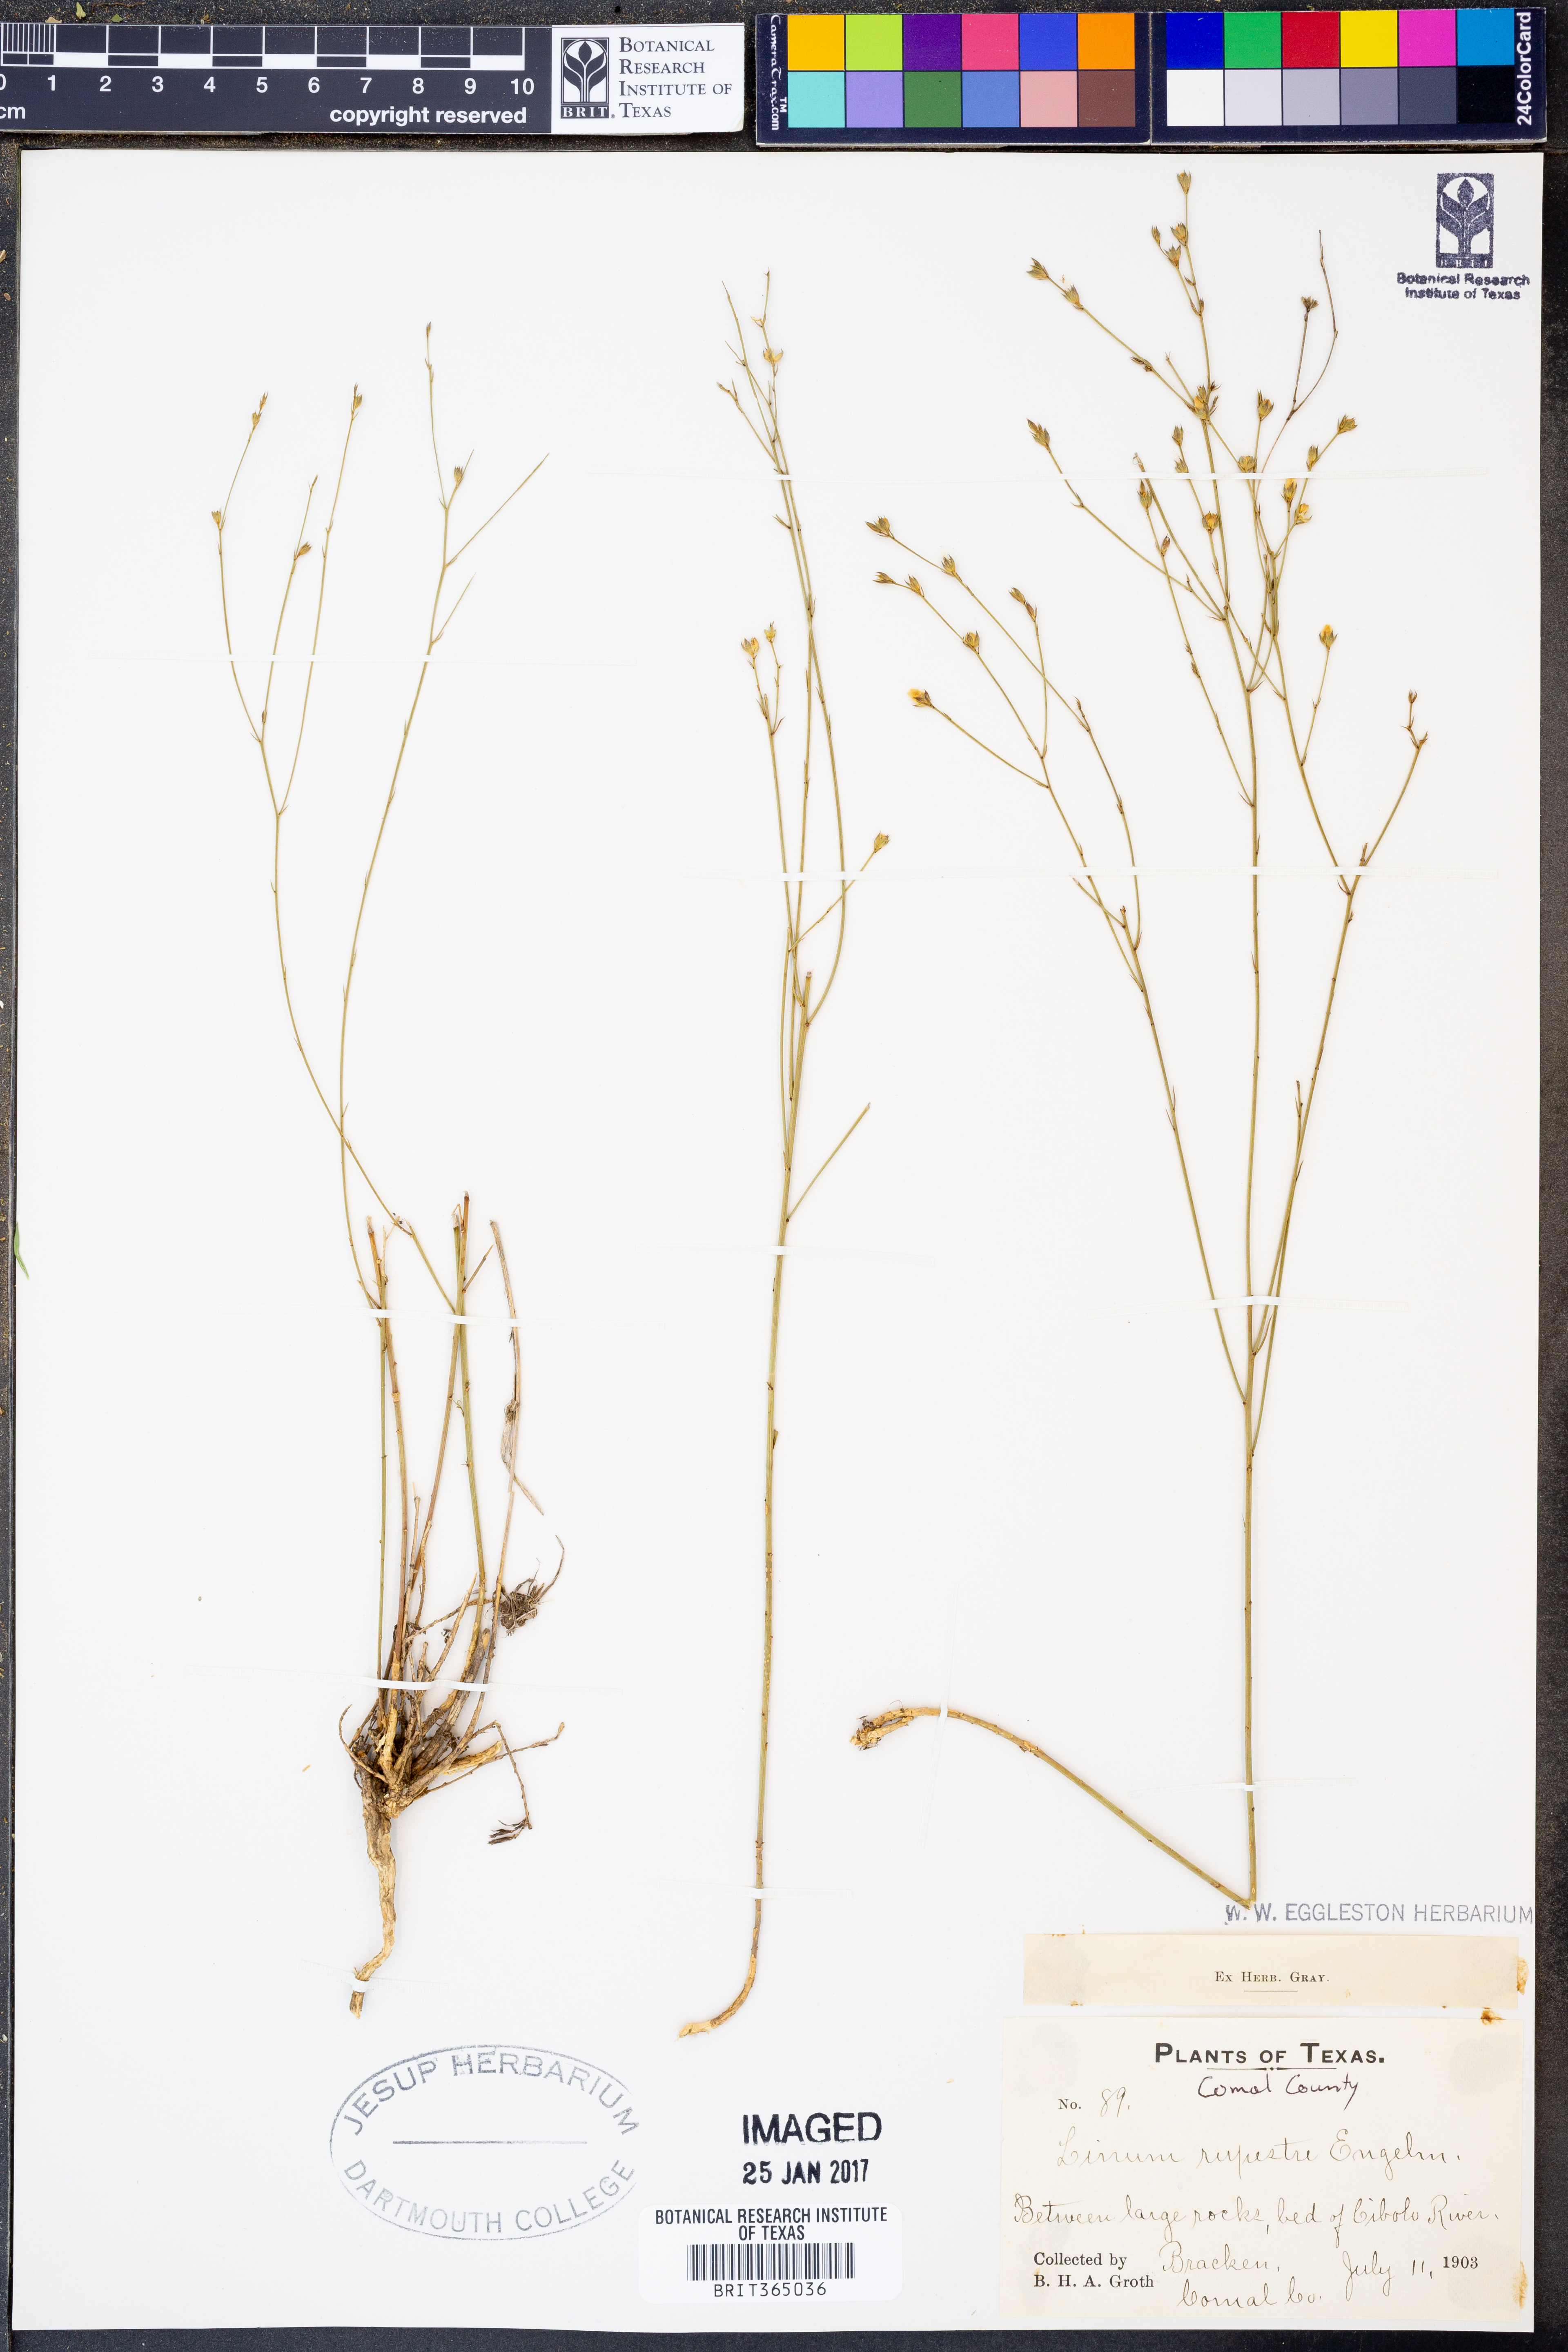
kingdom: Plantae
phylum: Tracheophyta
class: Magnoliopsida
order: Malpighiales
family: Linaceae
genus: Linum
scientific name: Linum rupestre
